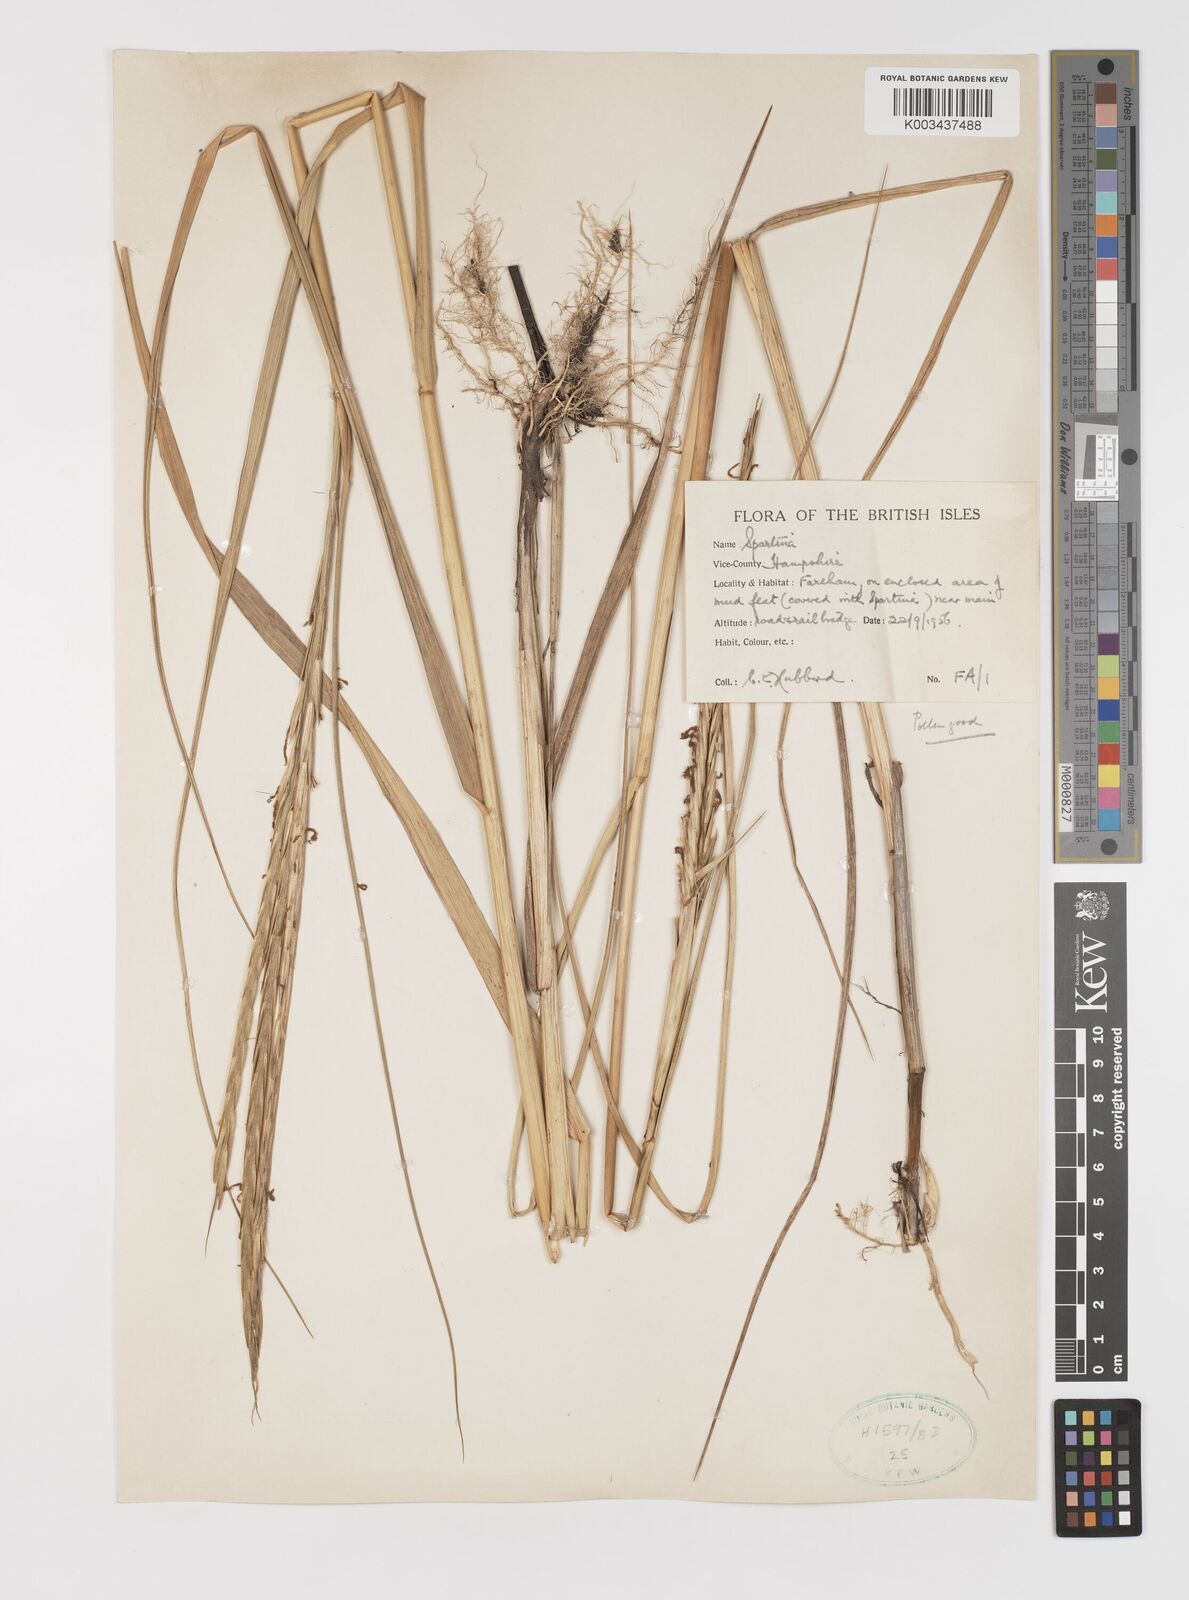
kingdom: Plantae
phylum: Tracheophyta
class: Liliopsida
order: Poales
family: Poaceae
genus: Sporobolus
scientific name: Sporobolus anglicus
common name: English cordgrass
